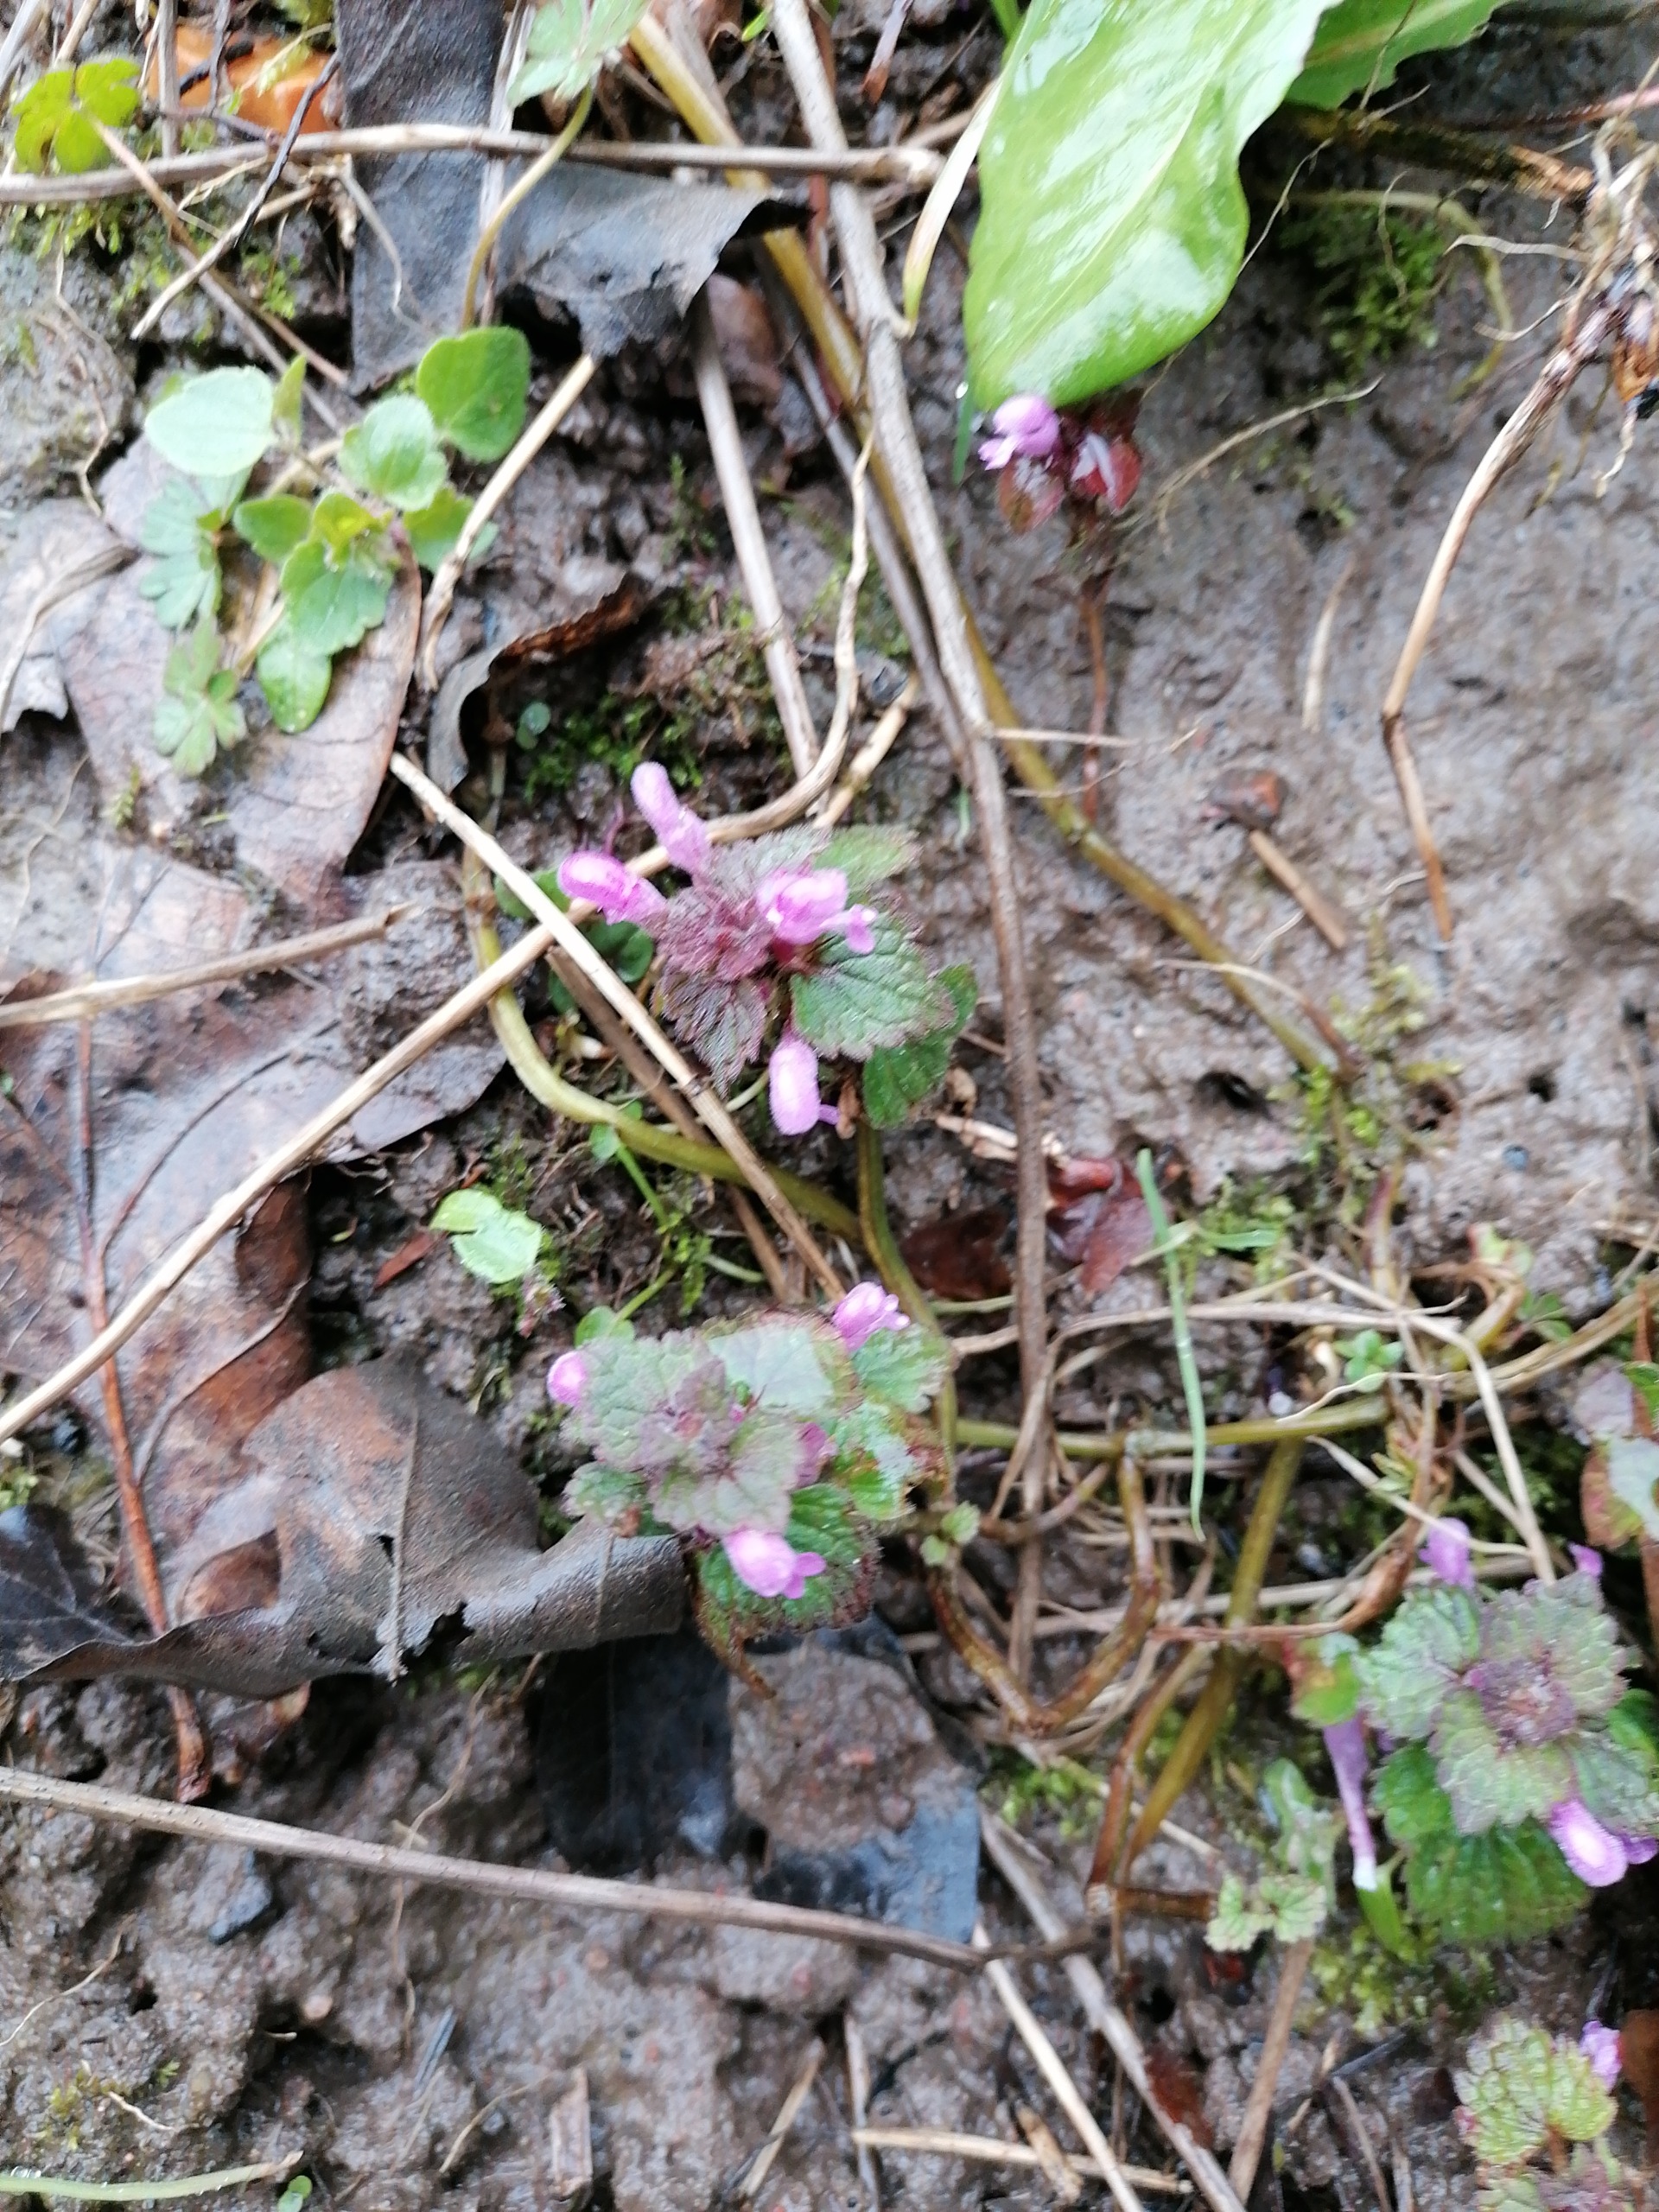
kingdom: Plantae
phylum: Tracheophyta
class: Magnoliopsida
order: Lamiales
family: Lamiaceae
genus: Lamium
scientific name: Lamium purpureum
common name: Rød tvetand
